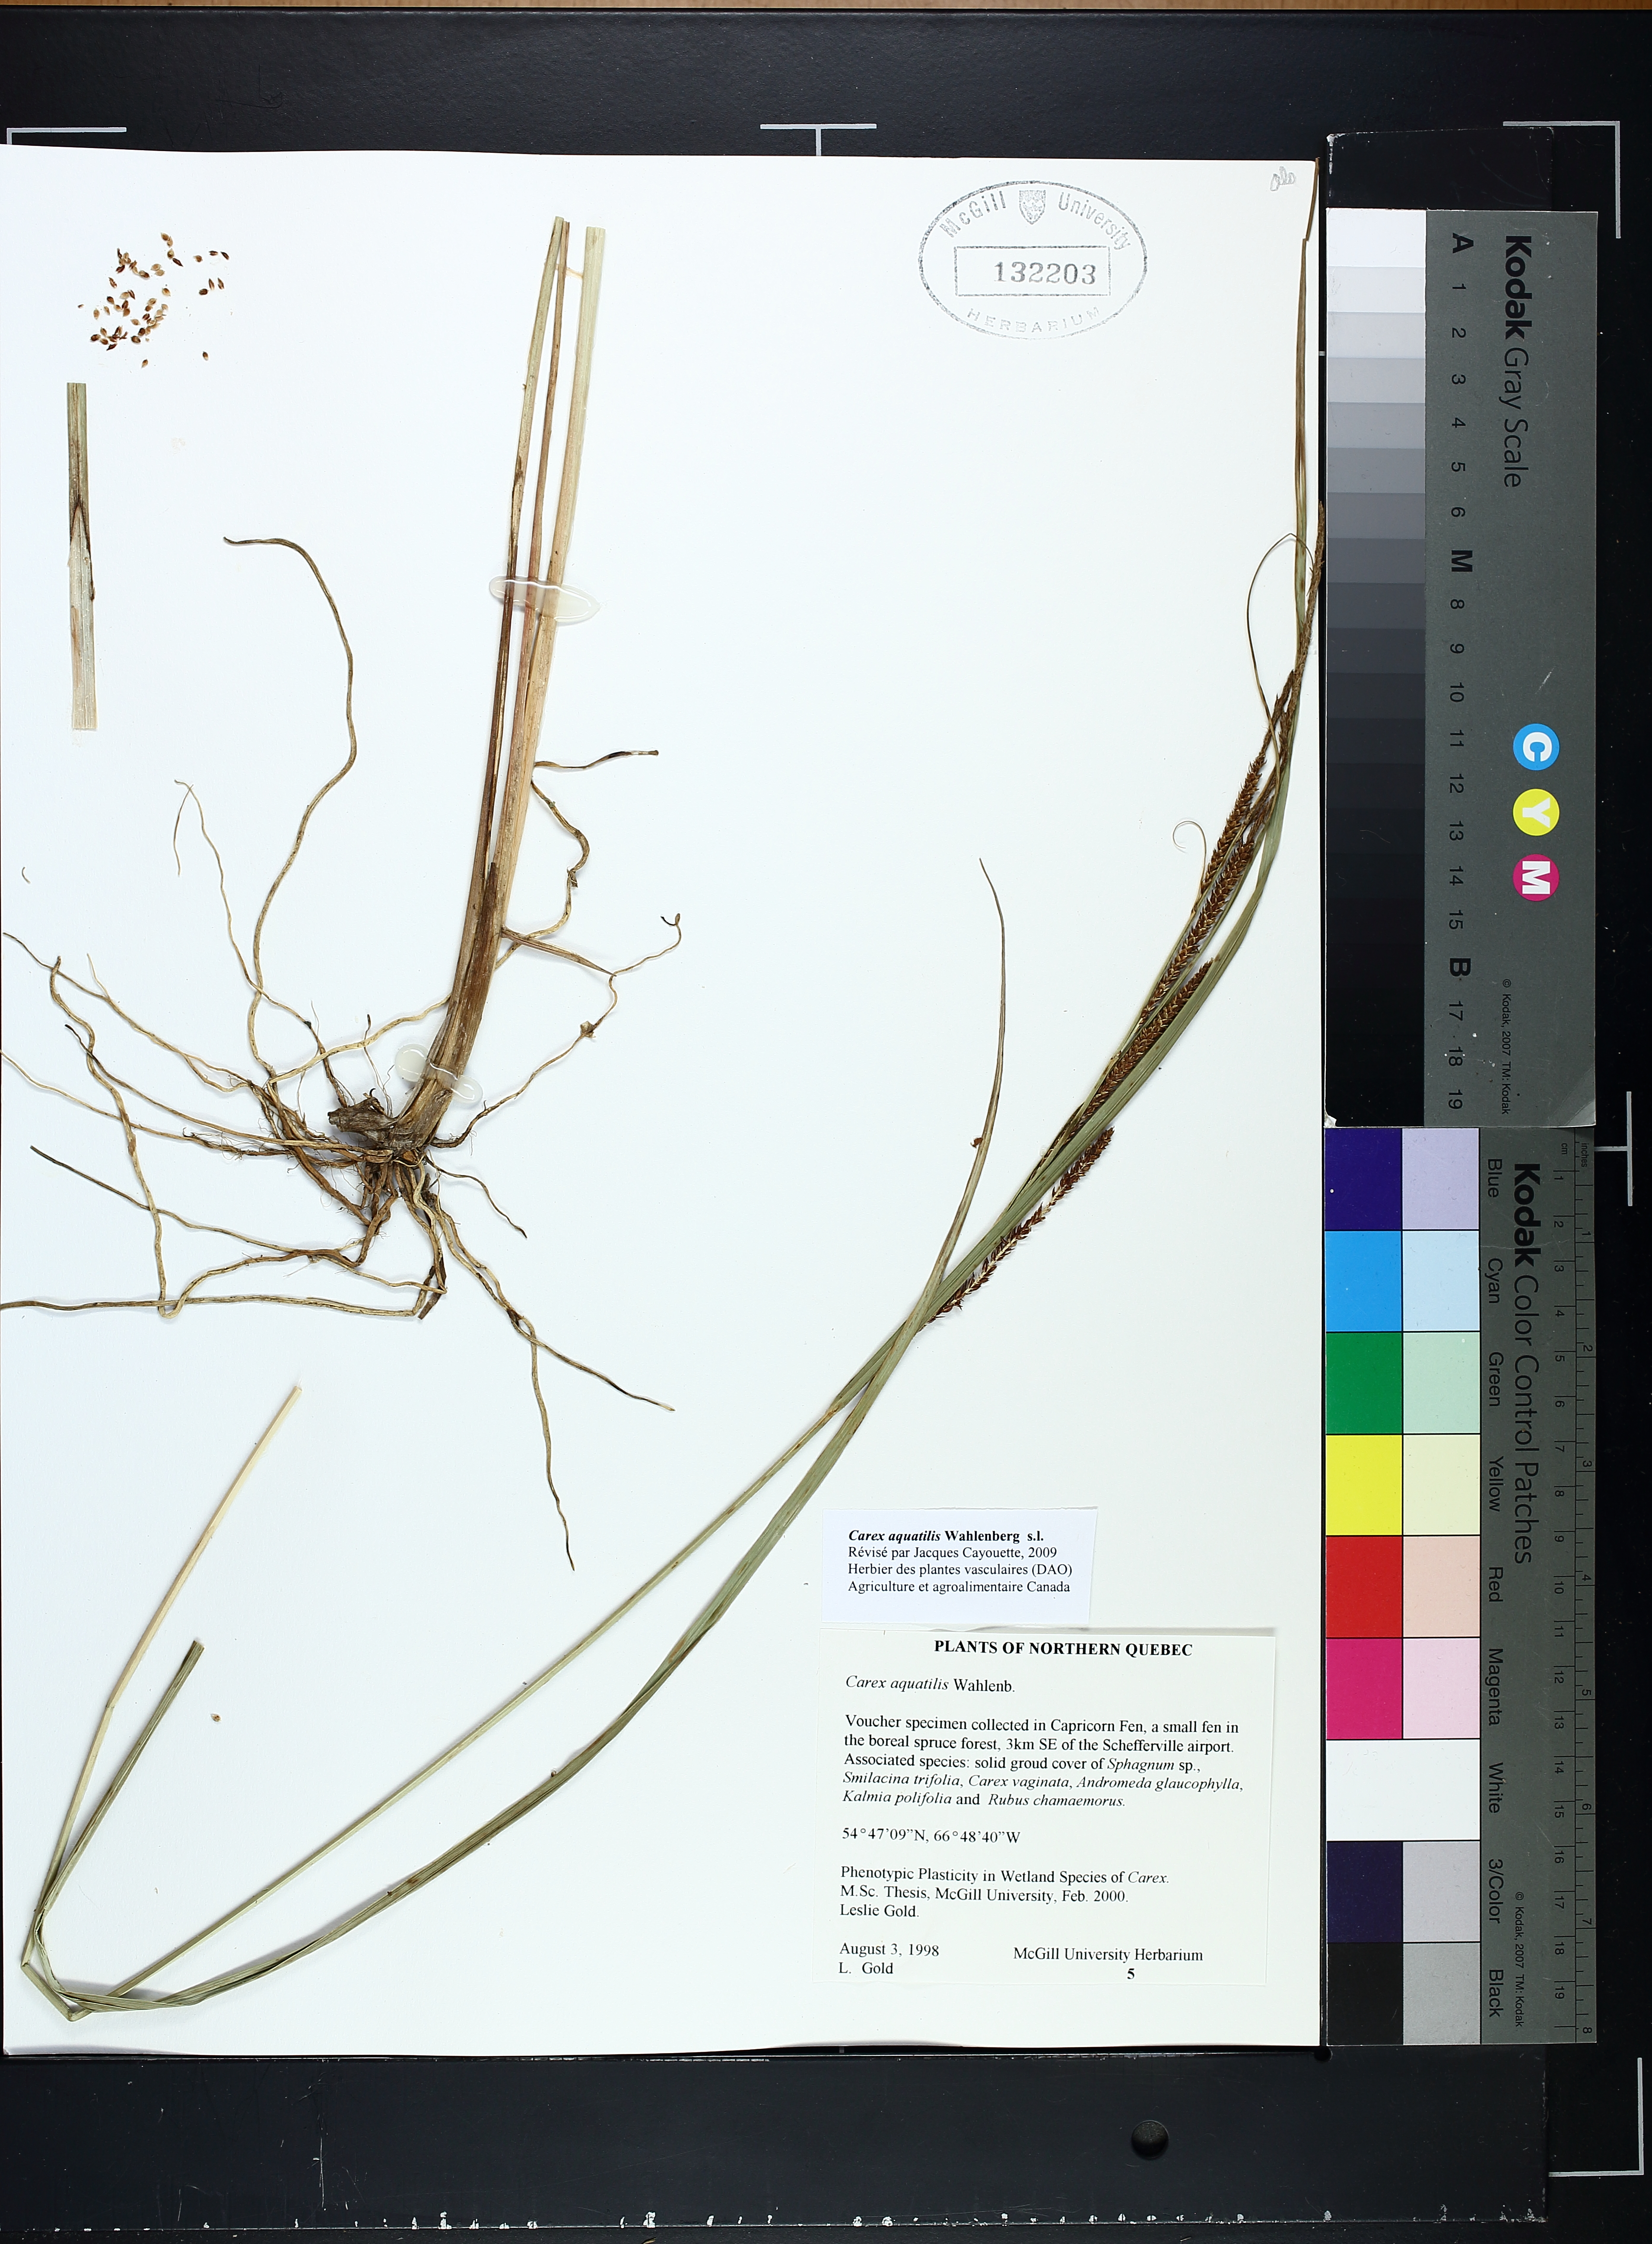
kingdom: Plantae
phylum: Tracheophyta
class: Liliopsida
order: Poales
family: Cyperaceae
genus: Carex
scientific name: Carex aquatilis
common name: Water sedge
